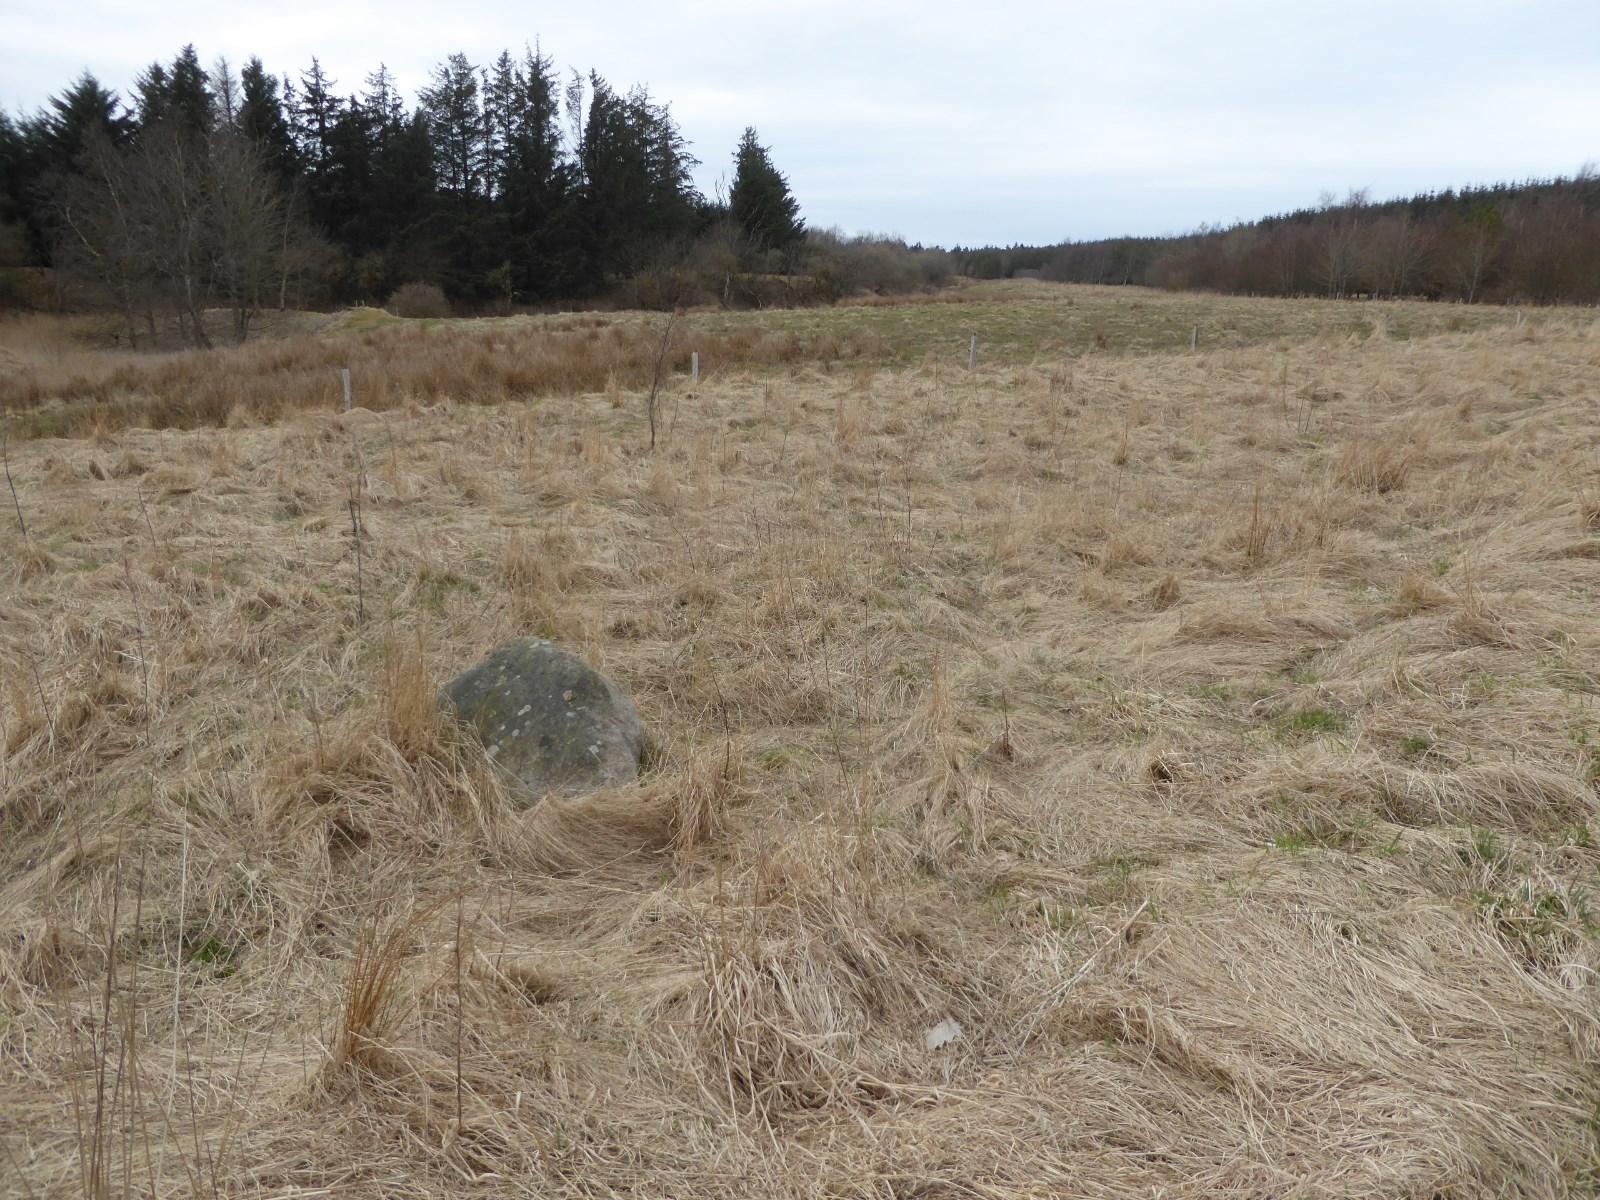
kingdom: Fungi
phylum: Ascomycota
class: Lecanoromycetes
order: Rhizocarpales
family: Rhizocarpaceae
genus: Rhizocarpon
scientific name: Rhizocarpon geographicum
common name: gulgrøn landkortlav
